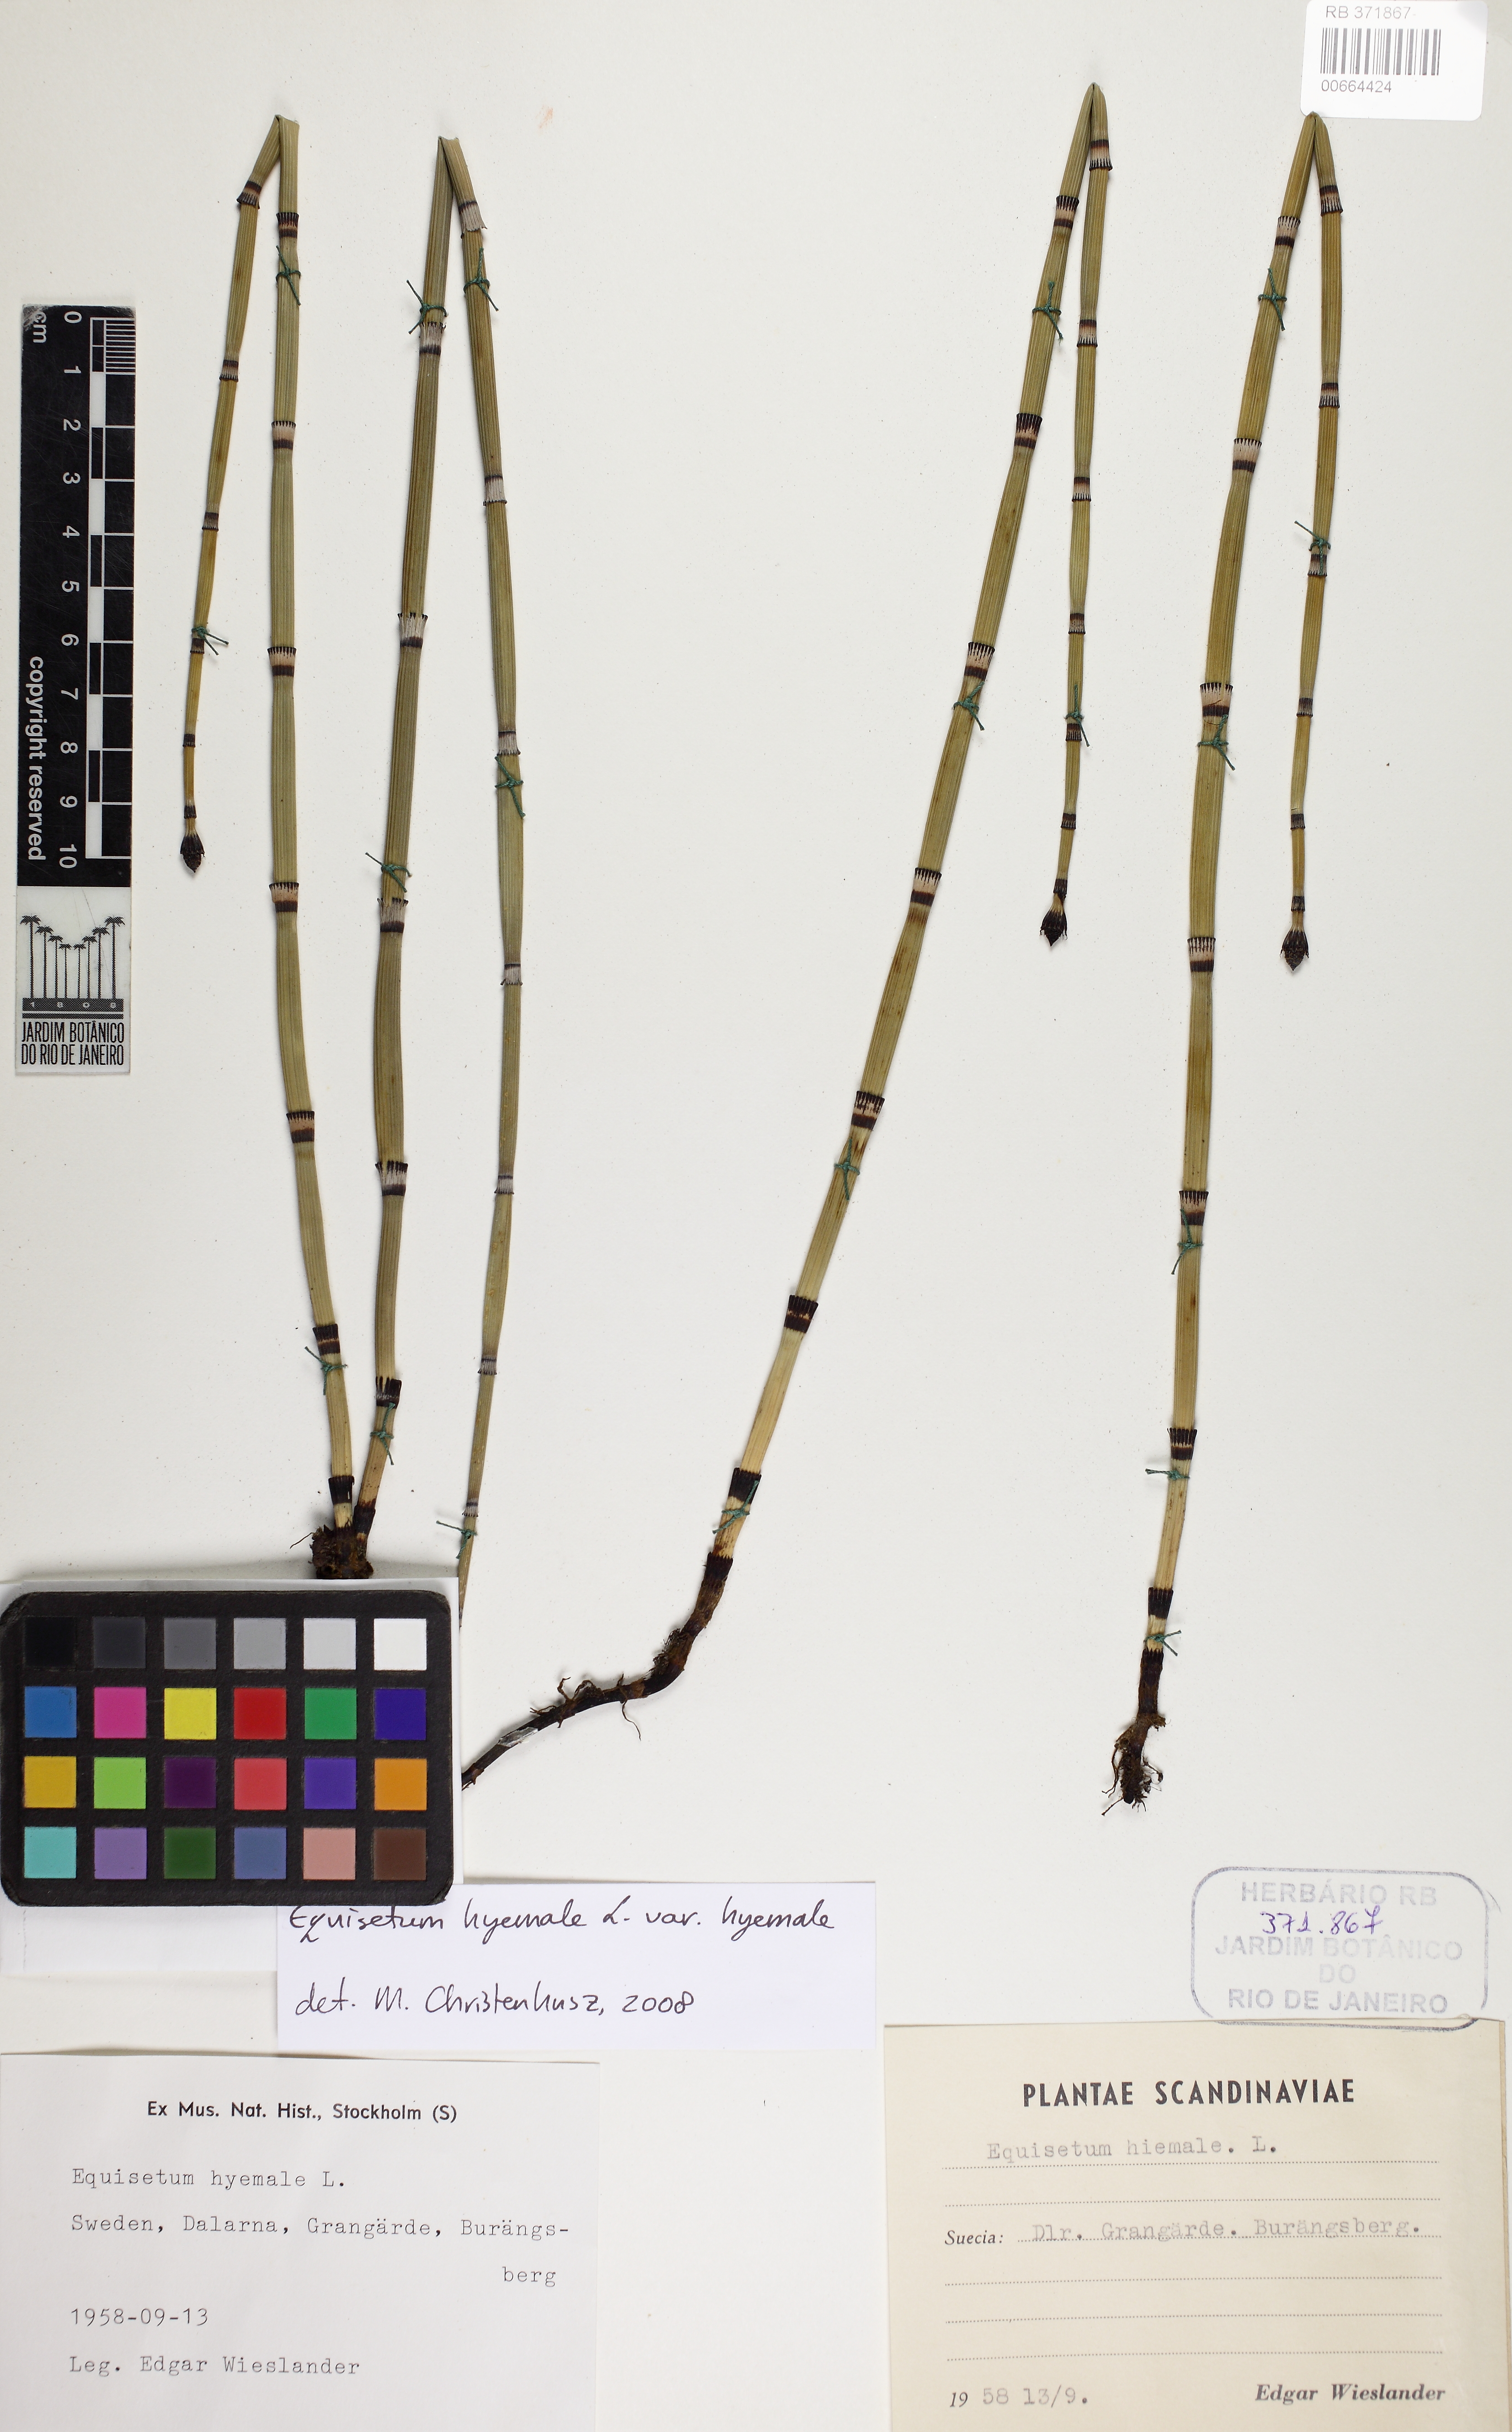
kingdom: Plantae
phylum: Tracheophyta
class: Polypodiopsida
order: Equisetales
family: Equisetaceae
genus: Equisetum
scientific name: Equisetum praealtum
